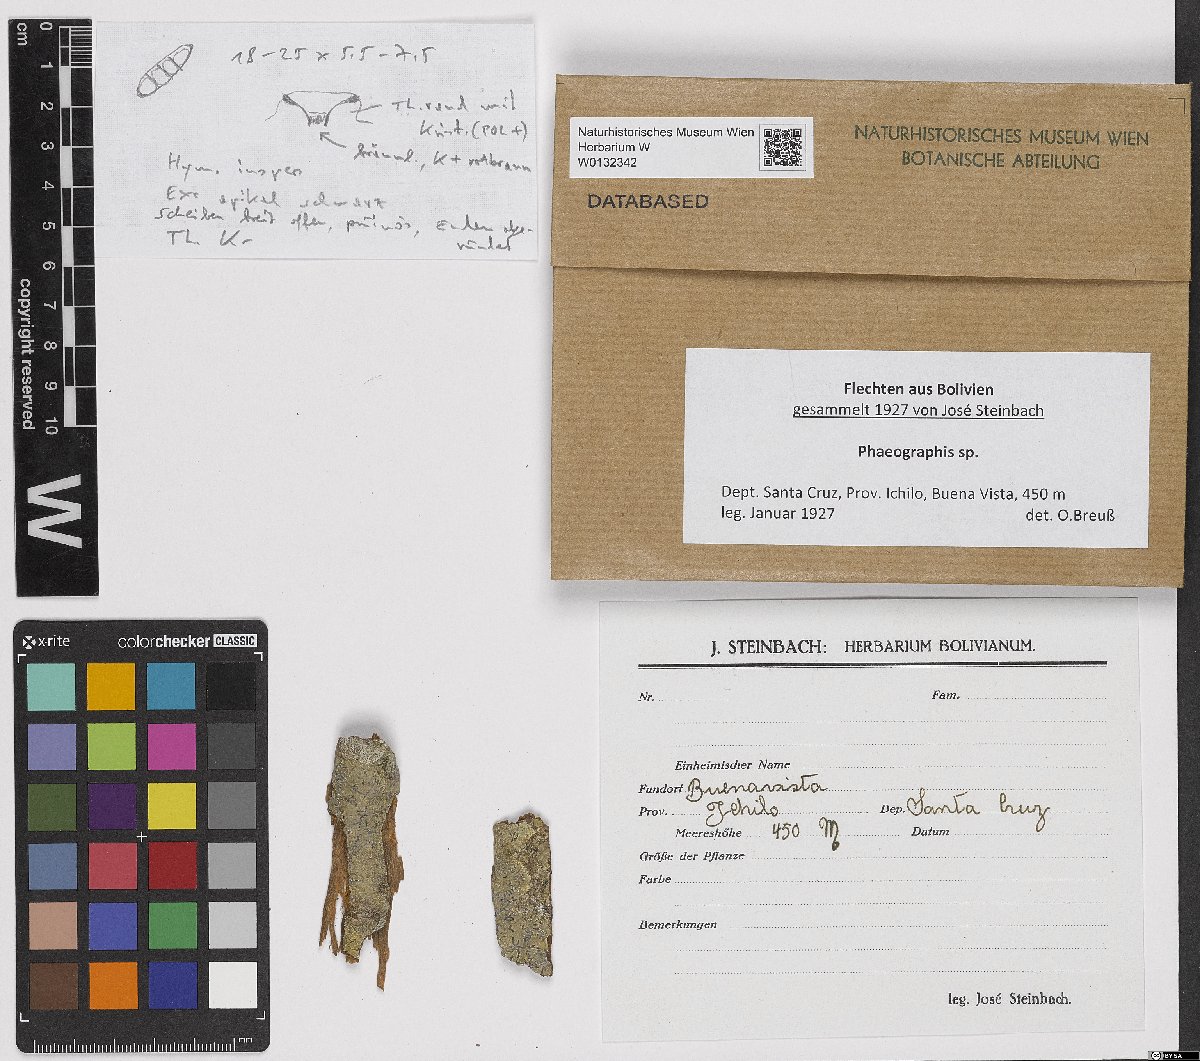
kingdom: Fungi
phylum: Ascomycota
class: Lecanoromycetes
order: Ostropales
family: Graphidaceae
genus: Phaeographis
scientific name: Phaeographis
